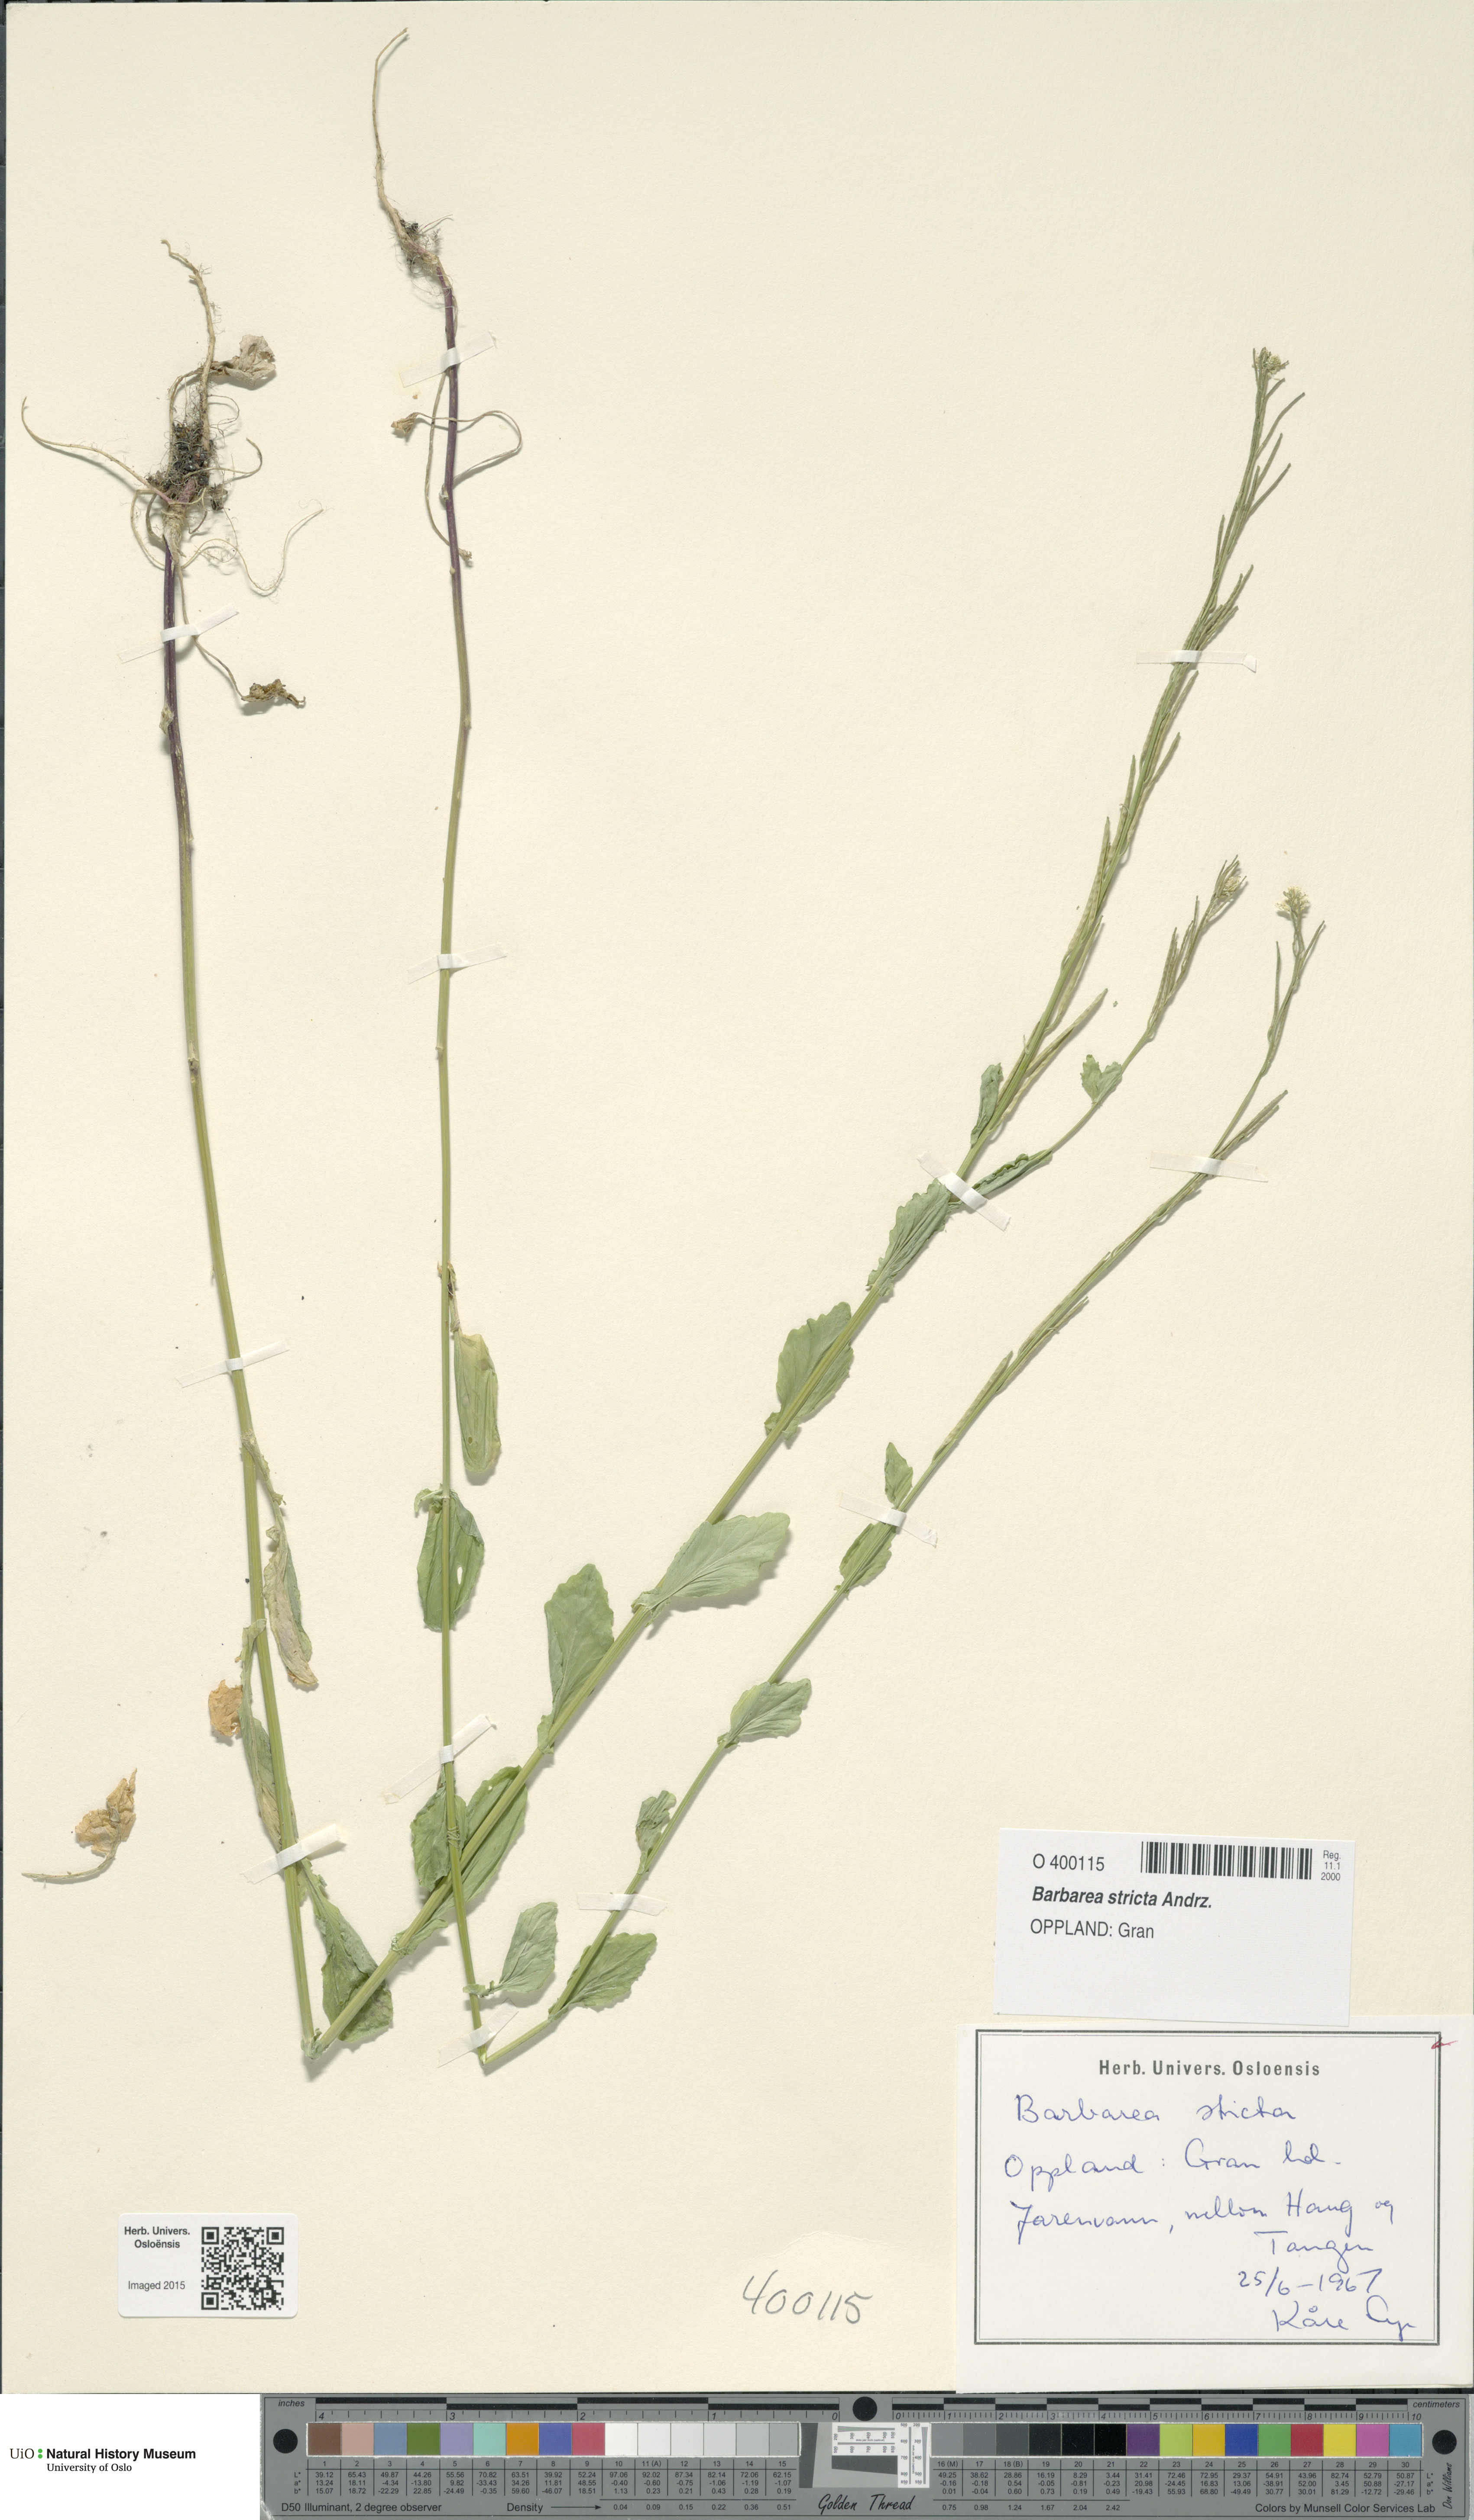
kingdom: Plantae
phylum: Tracheophyta
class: Magnoliopsida
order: Brassicales
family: Brassicaceae
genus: Barbarea
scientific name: Barbarea stricta
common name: Small-flowered winter-cress
